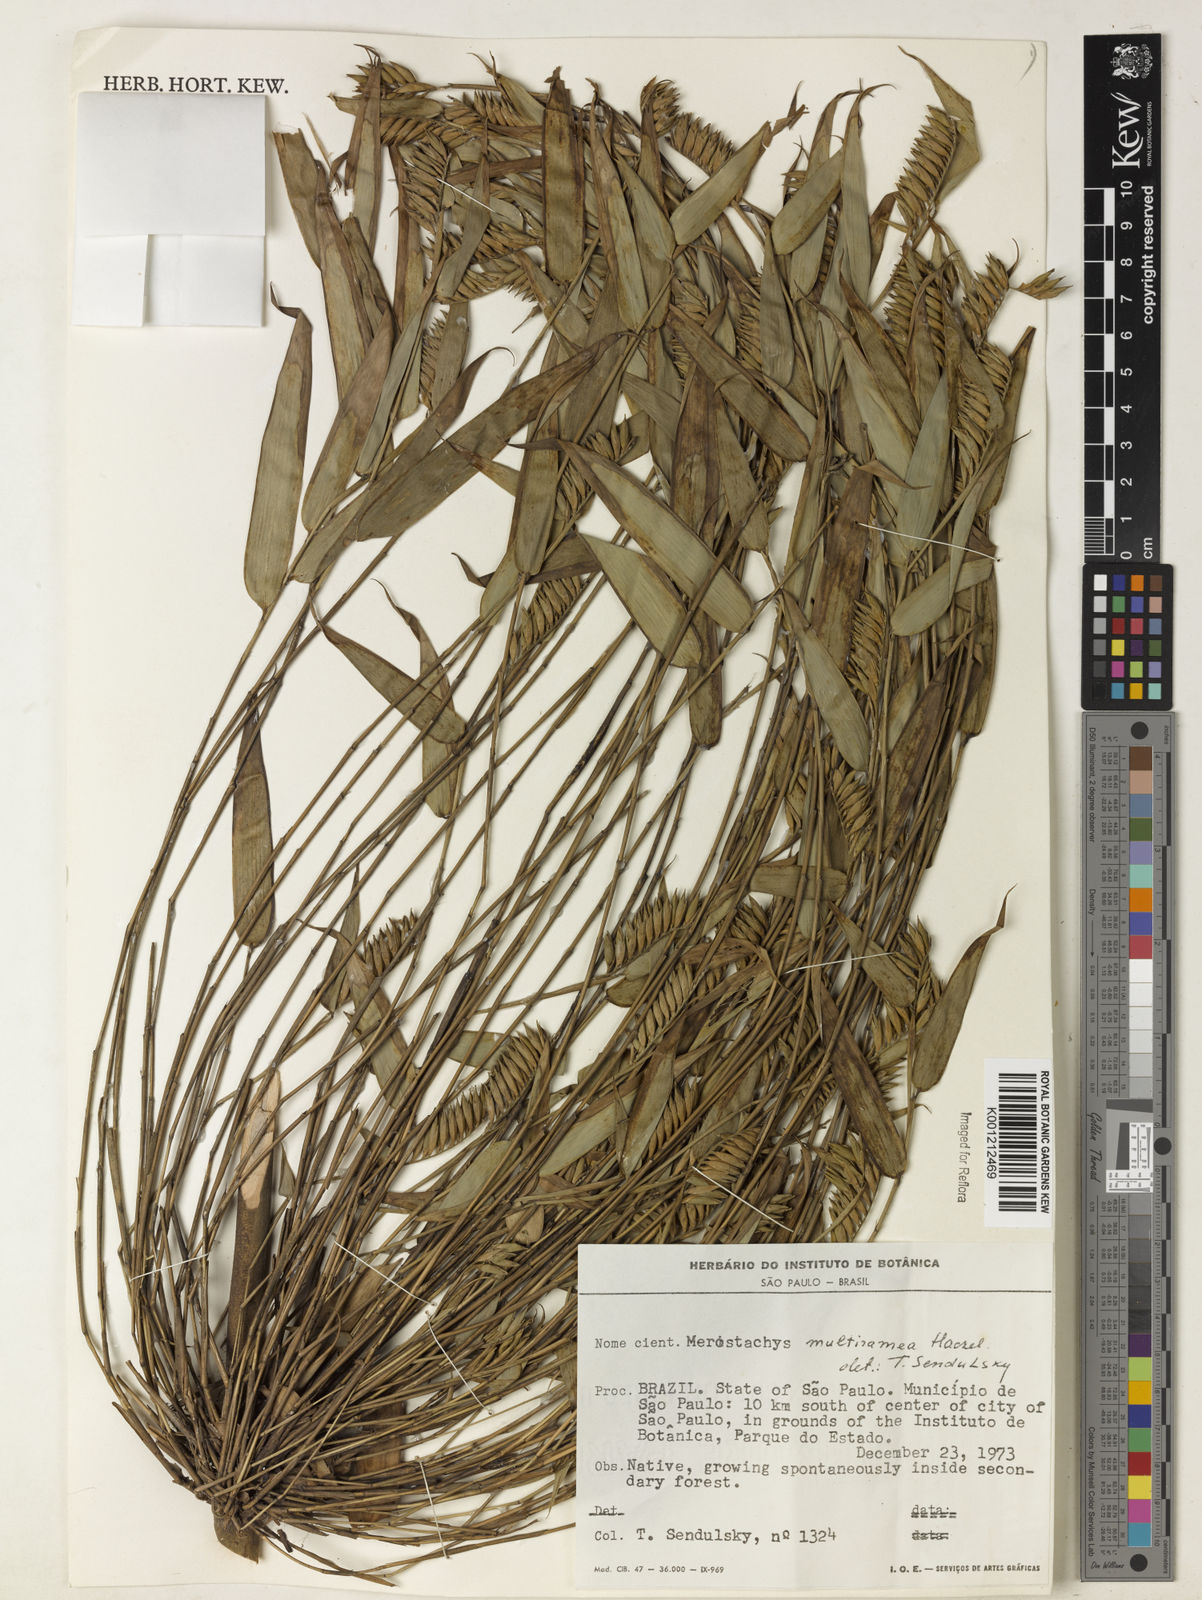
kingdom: Plantae
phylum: Tracheophyta
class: Liliopsida
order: Poales
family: Poaceae
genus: Merostachys
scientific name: Merostachys multiramea
